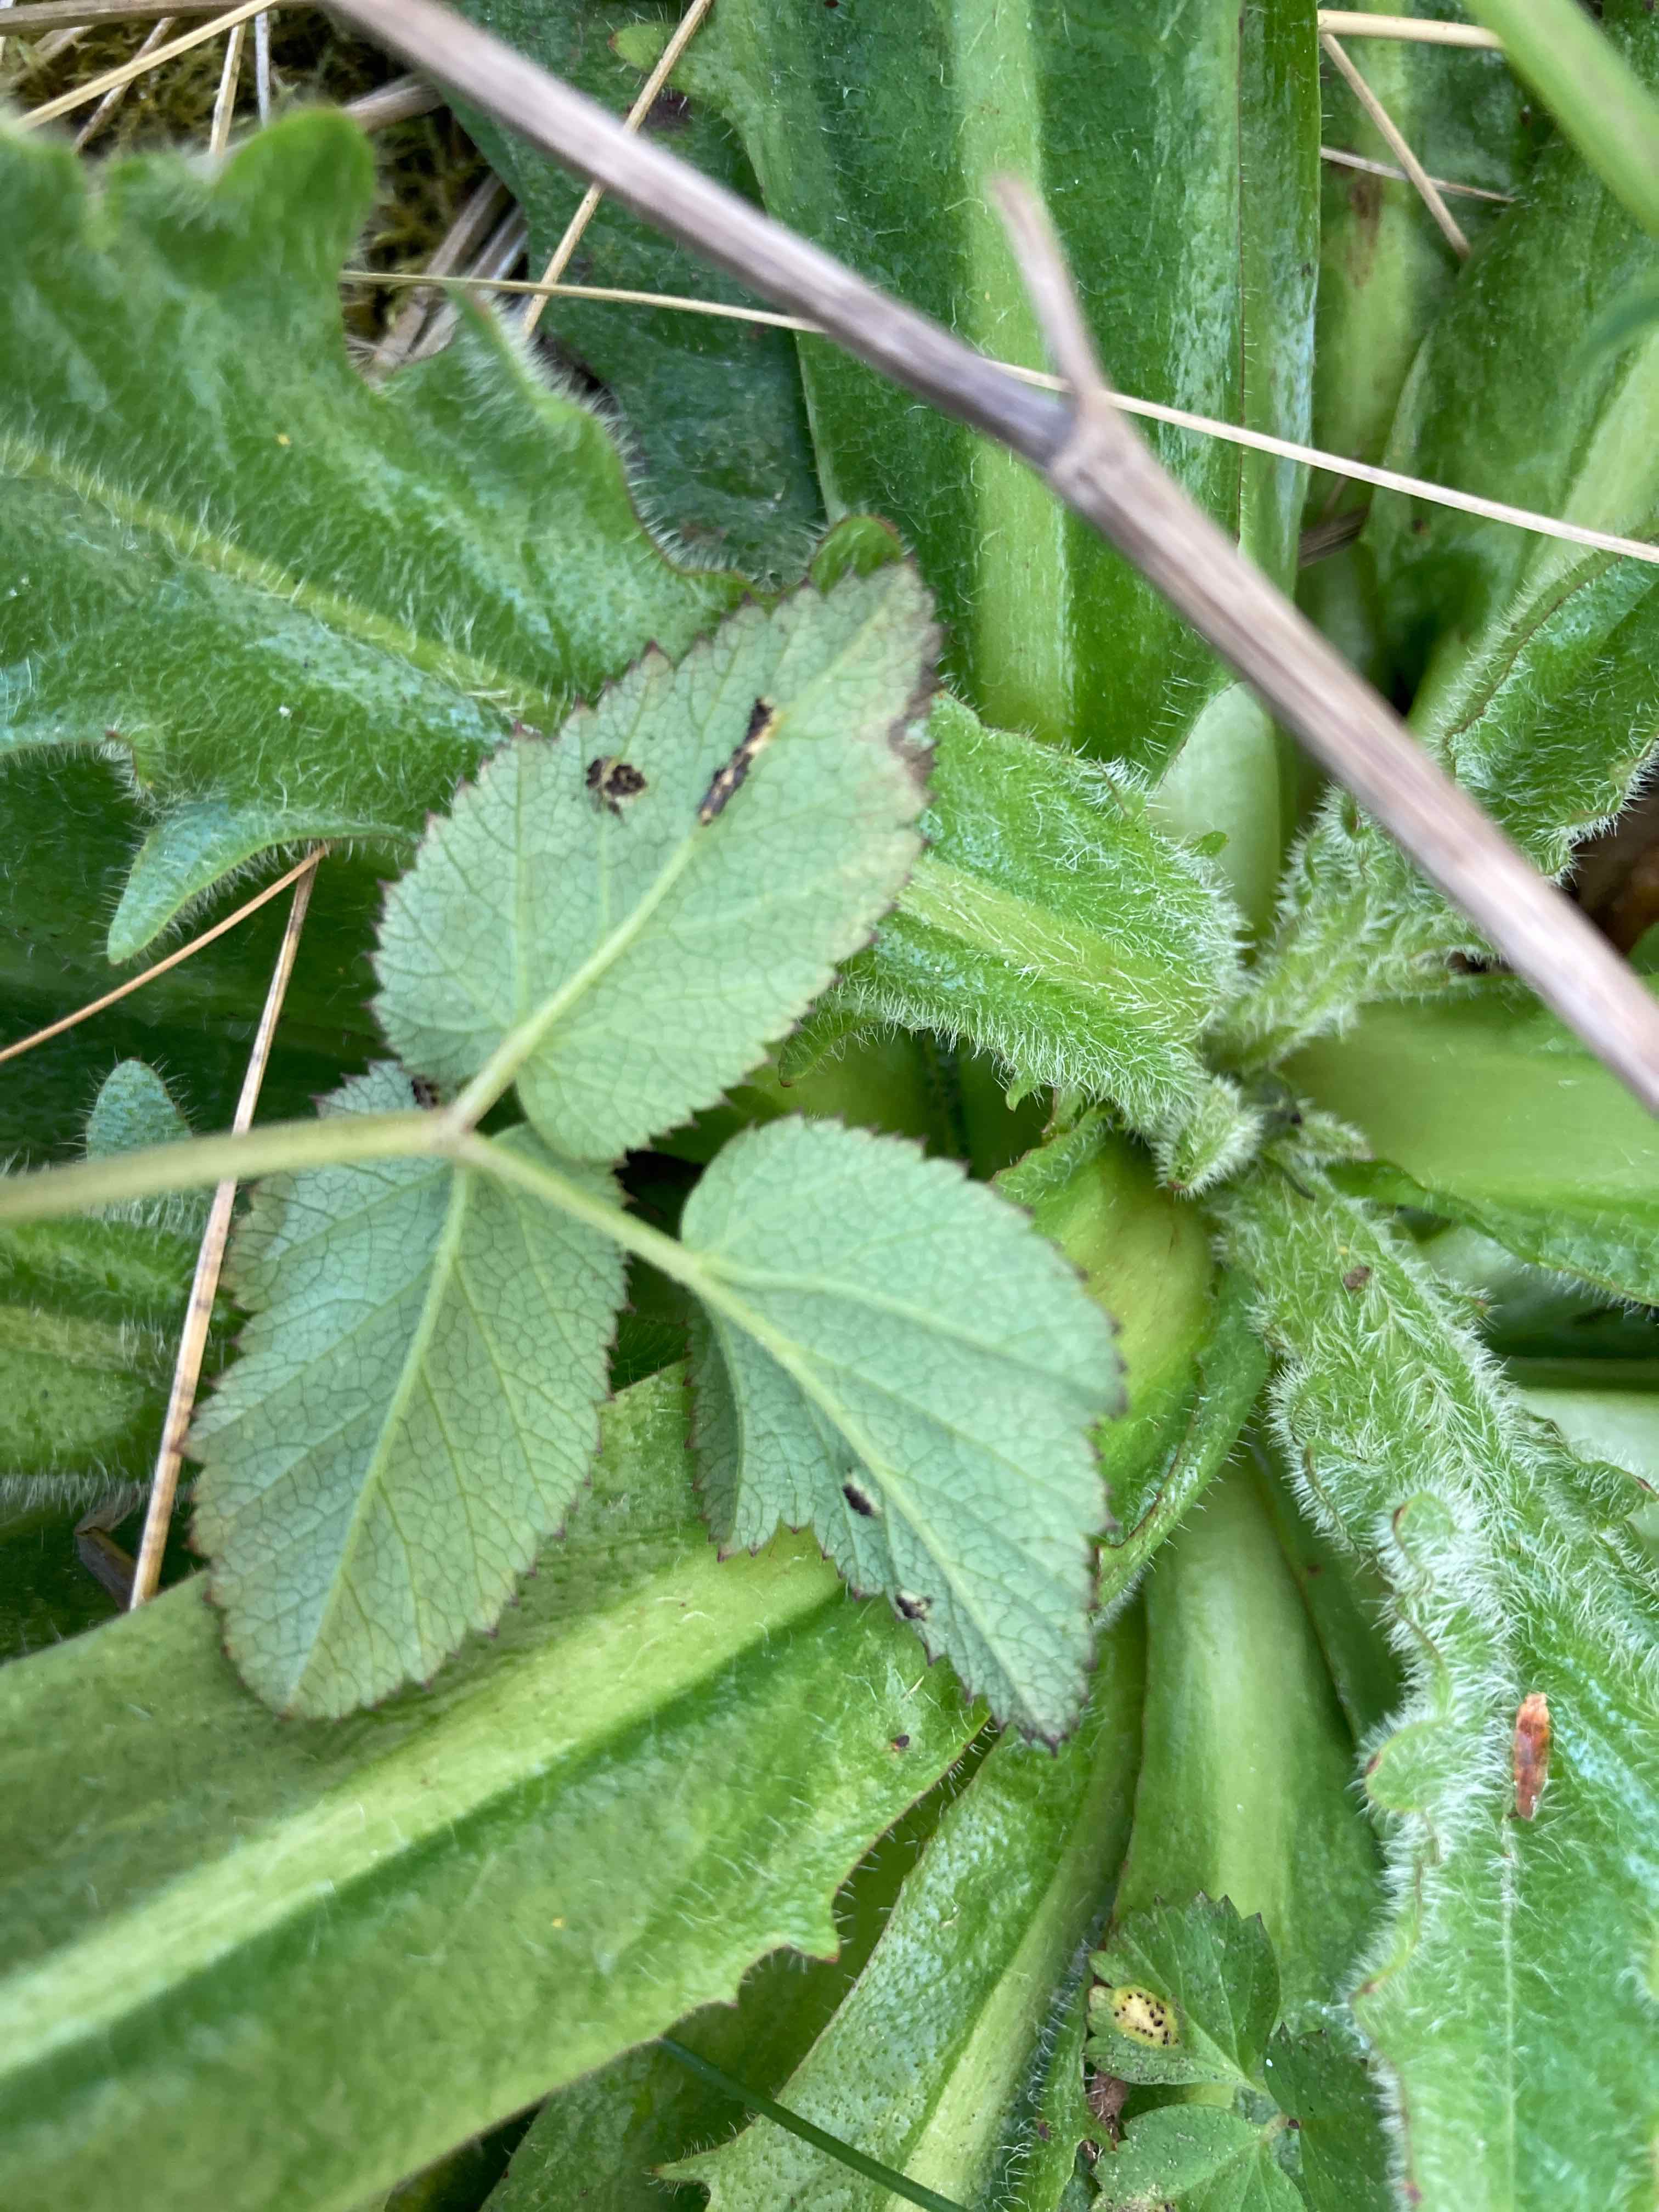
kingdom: Fungi
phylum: Basidiomycota
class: Pucciniomycetes
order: Pucciniales
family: Pucciniaceae
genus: Puccinia
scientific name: Puccinia
